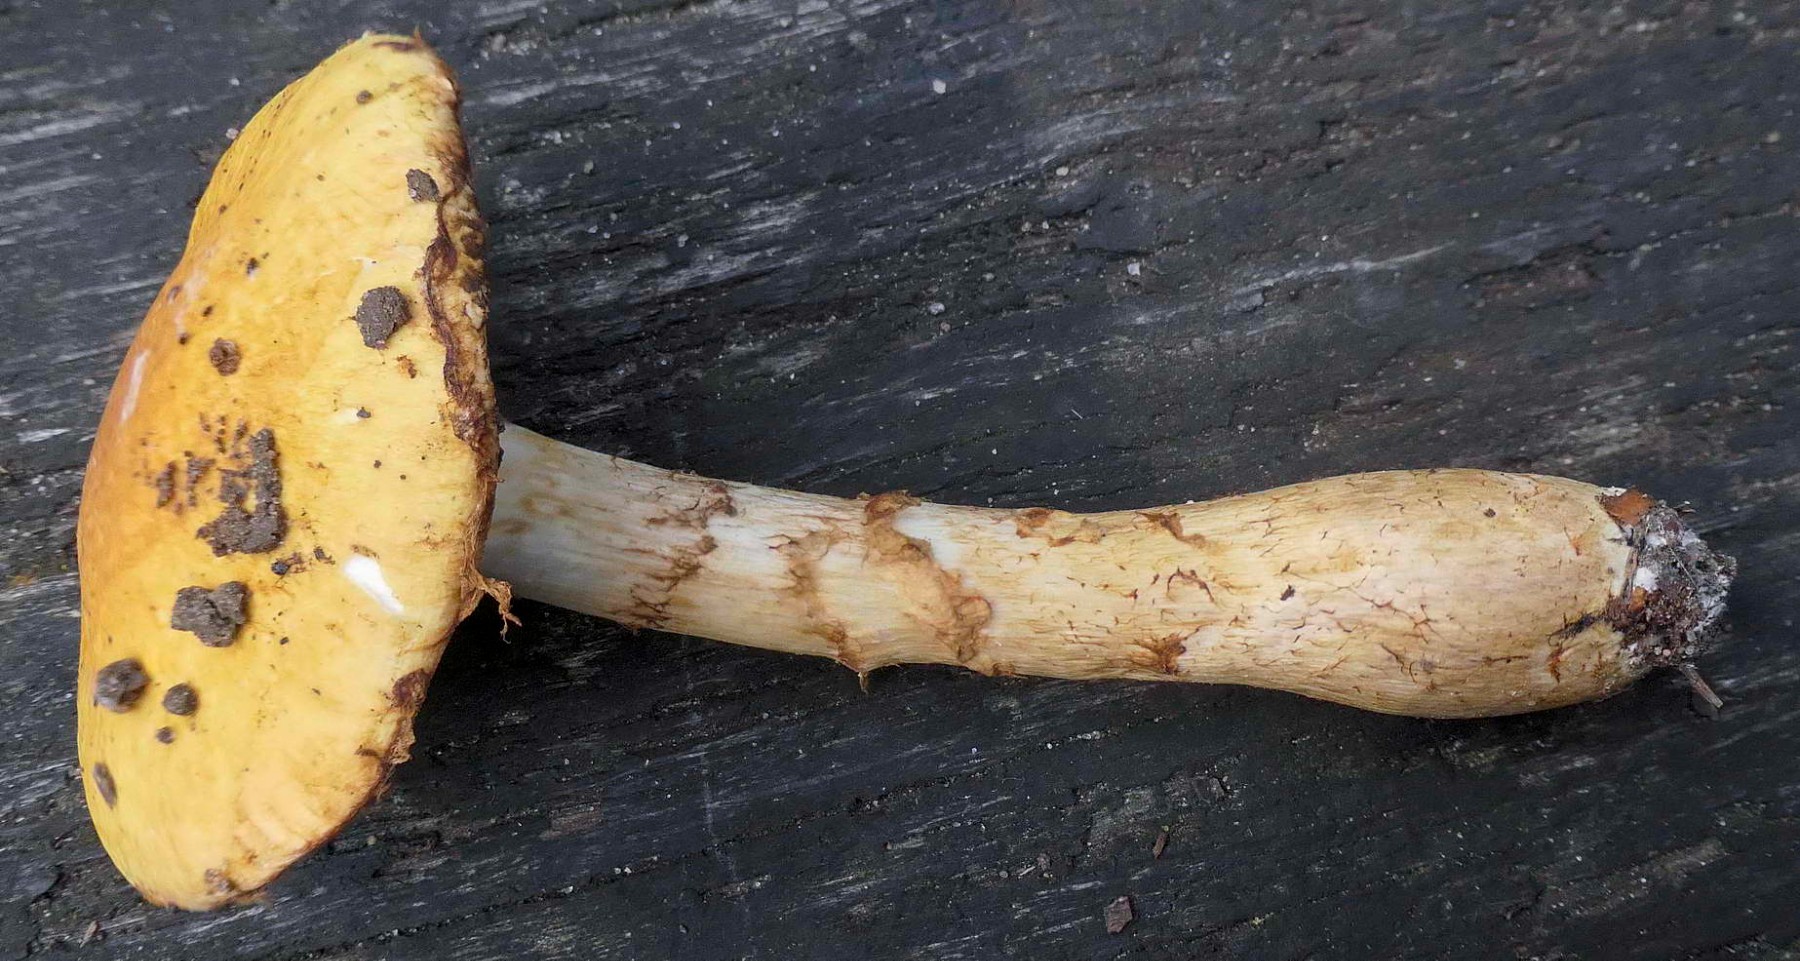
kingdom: Fungi
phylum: Basidiomycota
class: Agaricomycetes
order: Agaricales
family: Cortinariaceae
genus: Phlegmacium
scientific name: Phlegmacium triumphans
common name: gulbæltet slørhat
